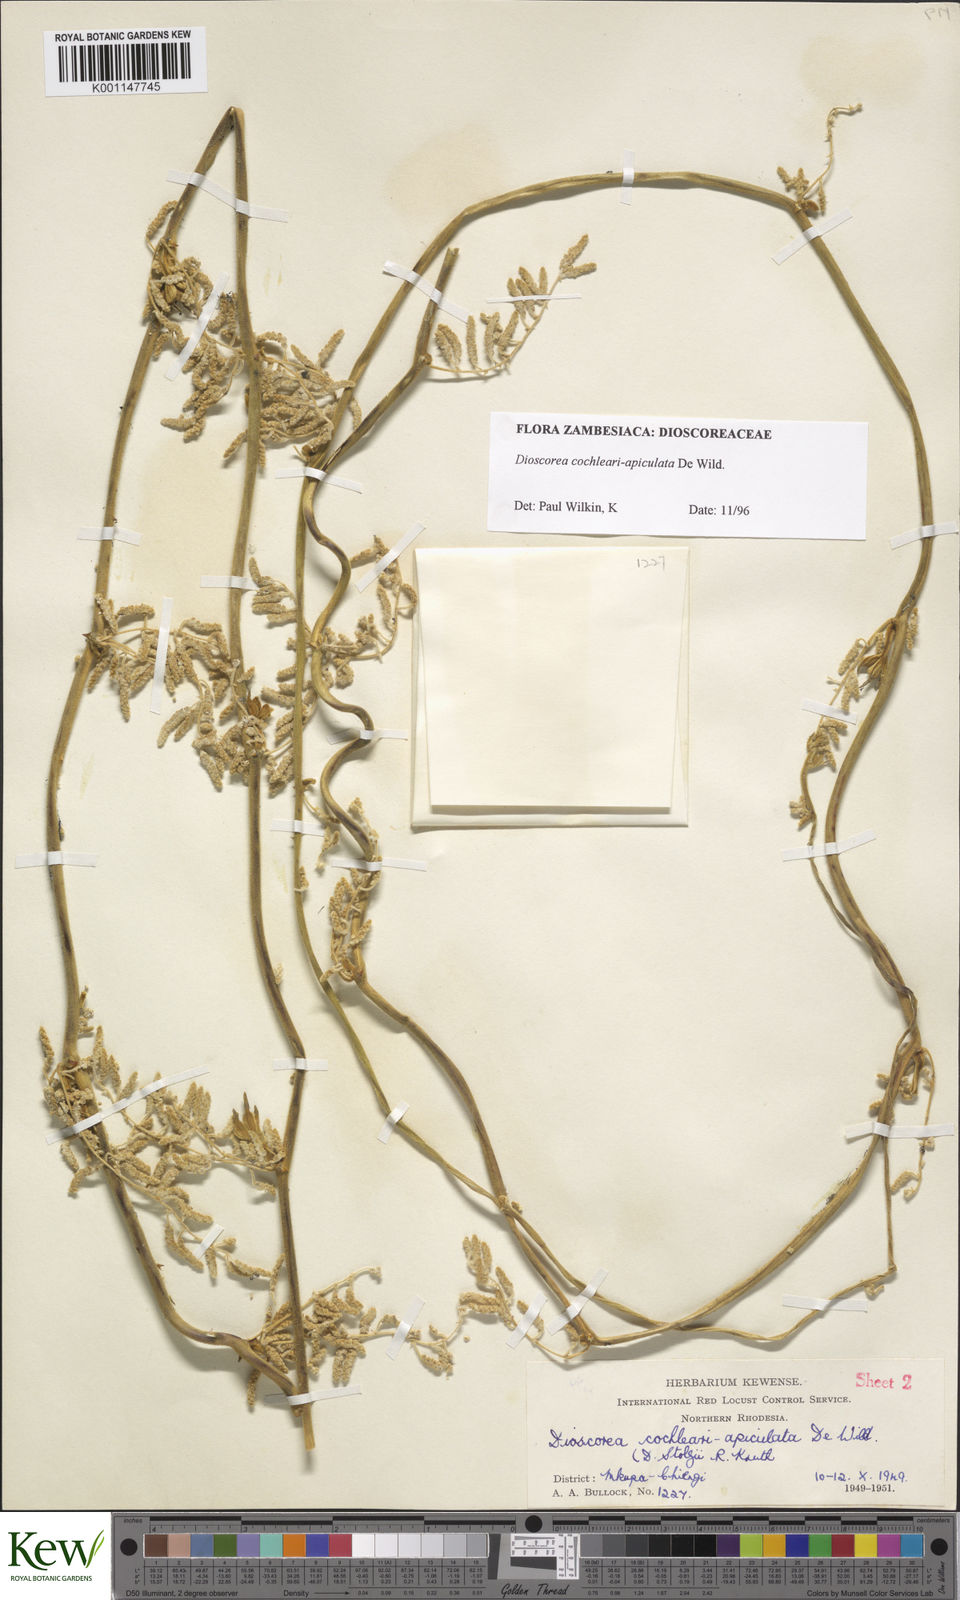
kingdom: Plantae
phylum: Tracheophyta
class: Liliopsida
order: Dioscoreales
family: Dioscoreaceae
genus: Dioscorea
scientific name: Dioscorea cochleariapiculata
